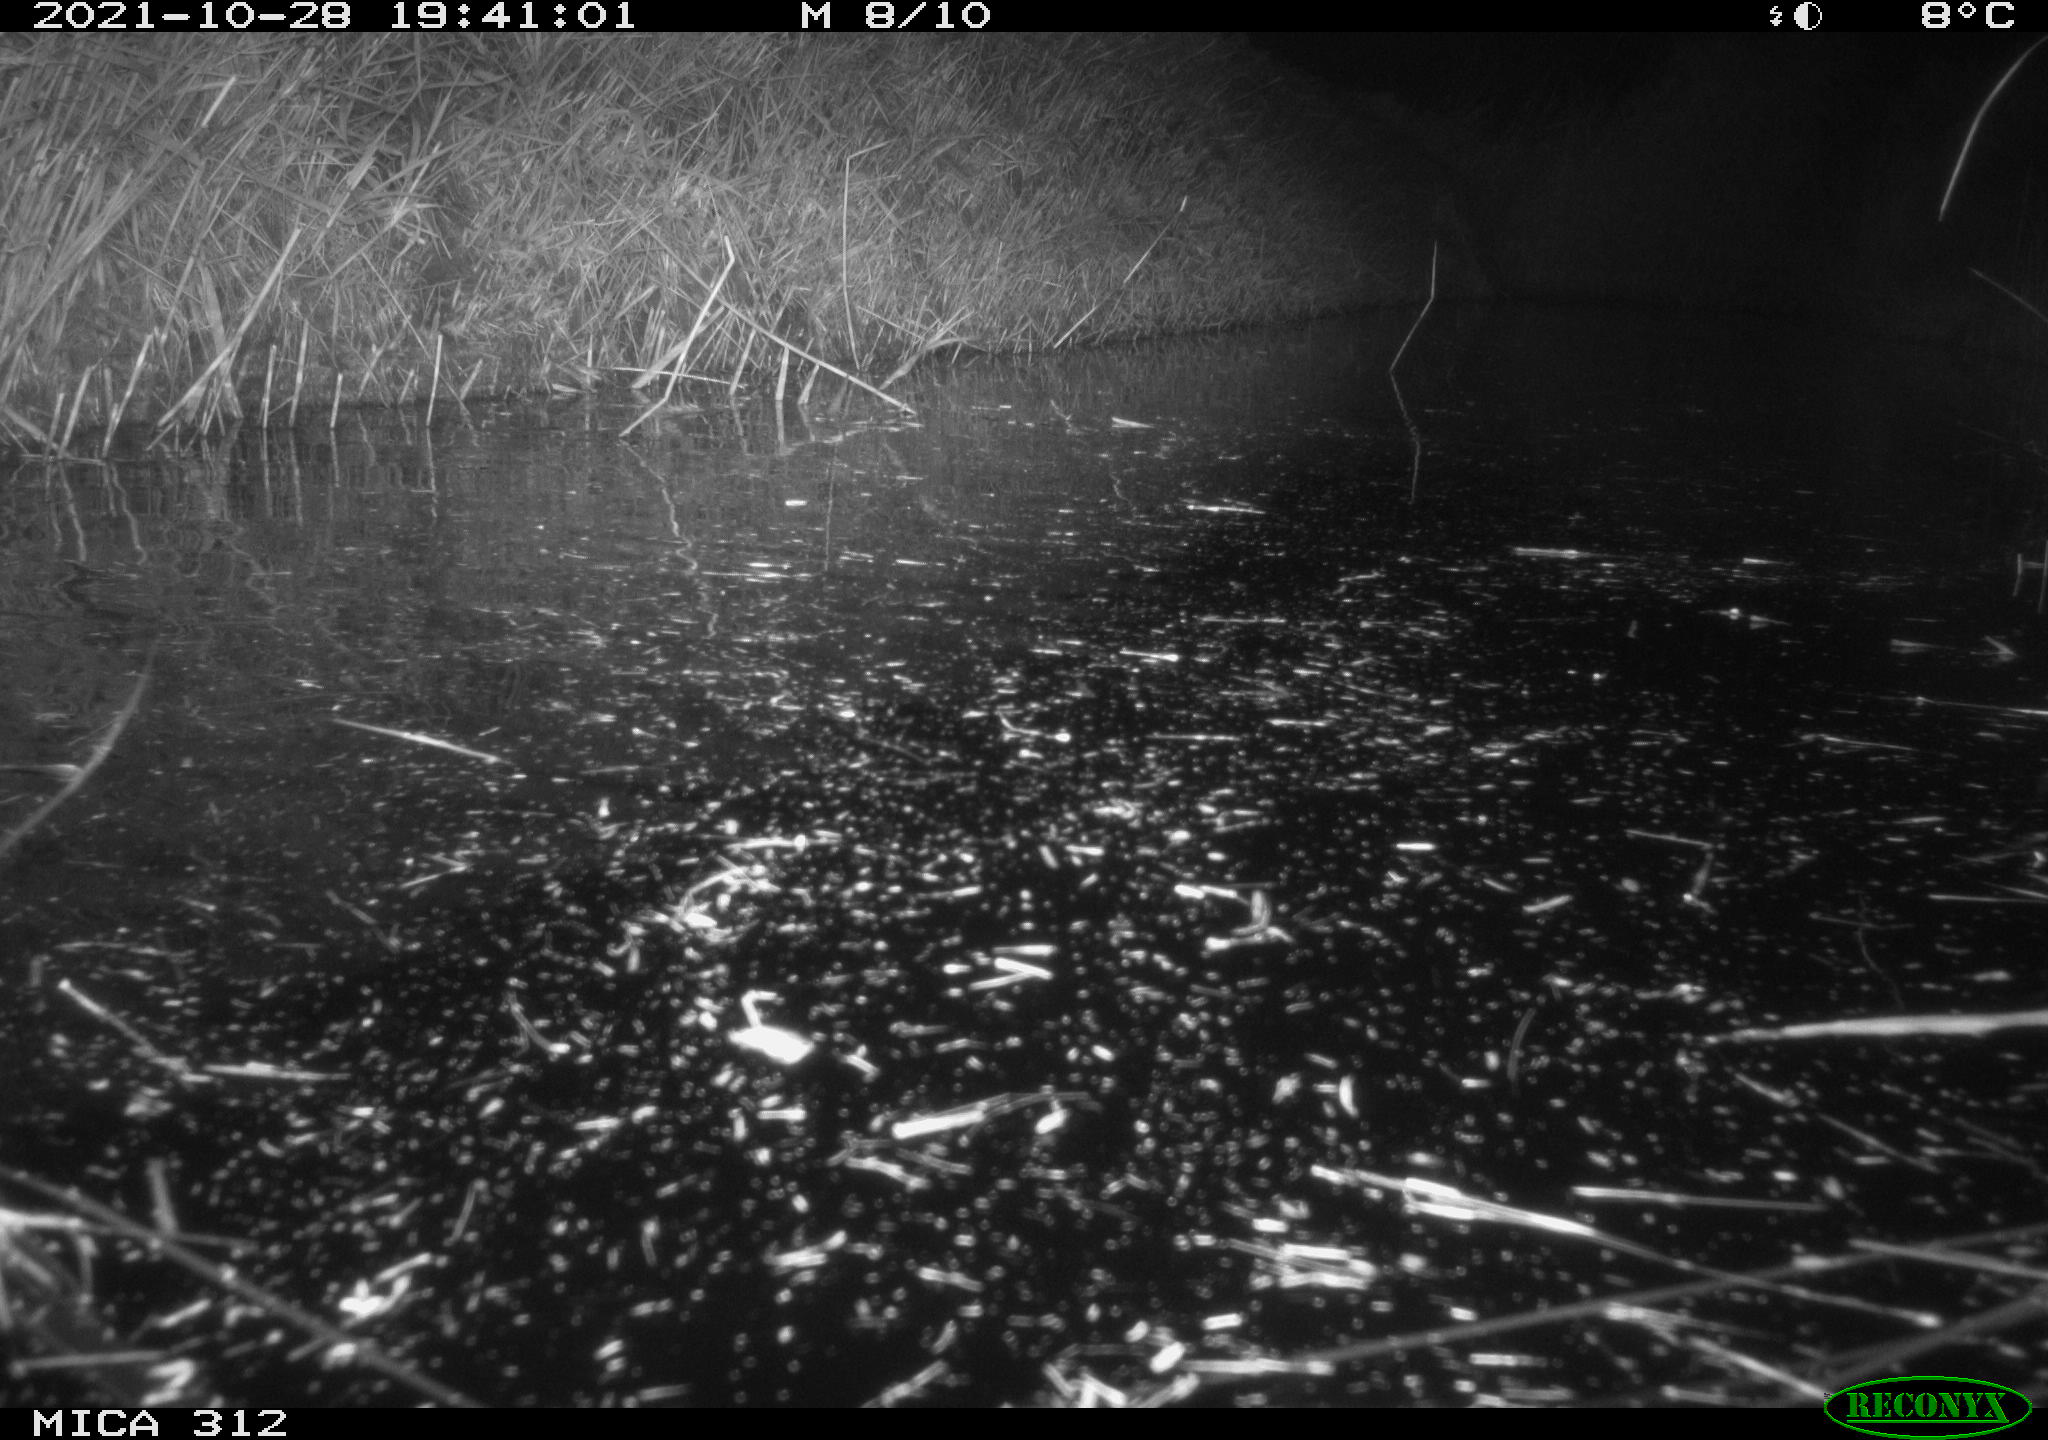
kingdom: Animalia
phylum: Chordata
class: Mammalia
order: Rodentia
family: Muridae
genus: Rattus
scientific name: Rattus norvegicus
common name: Brown rat
